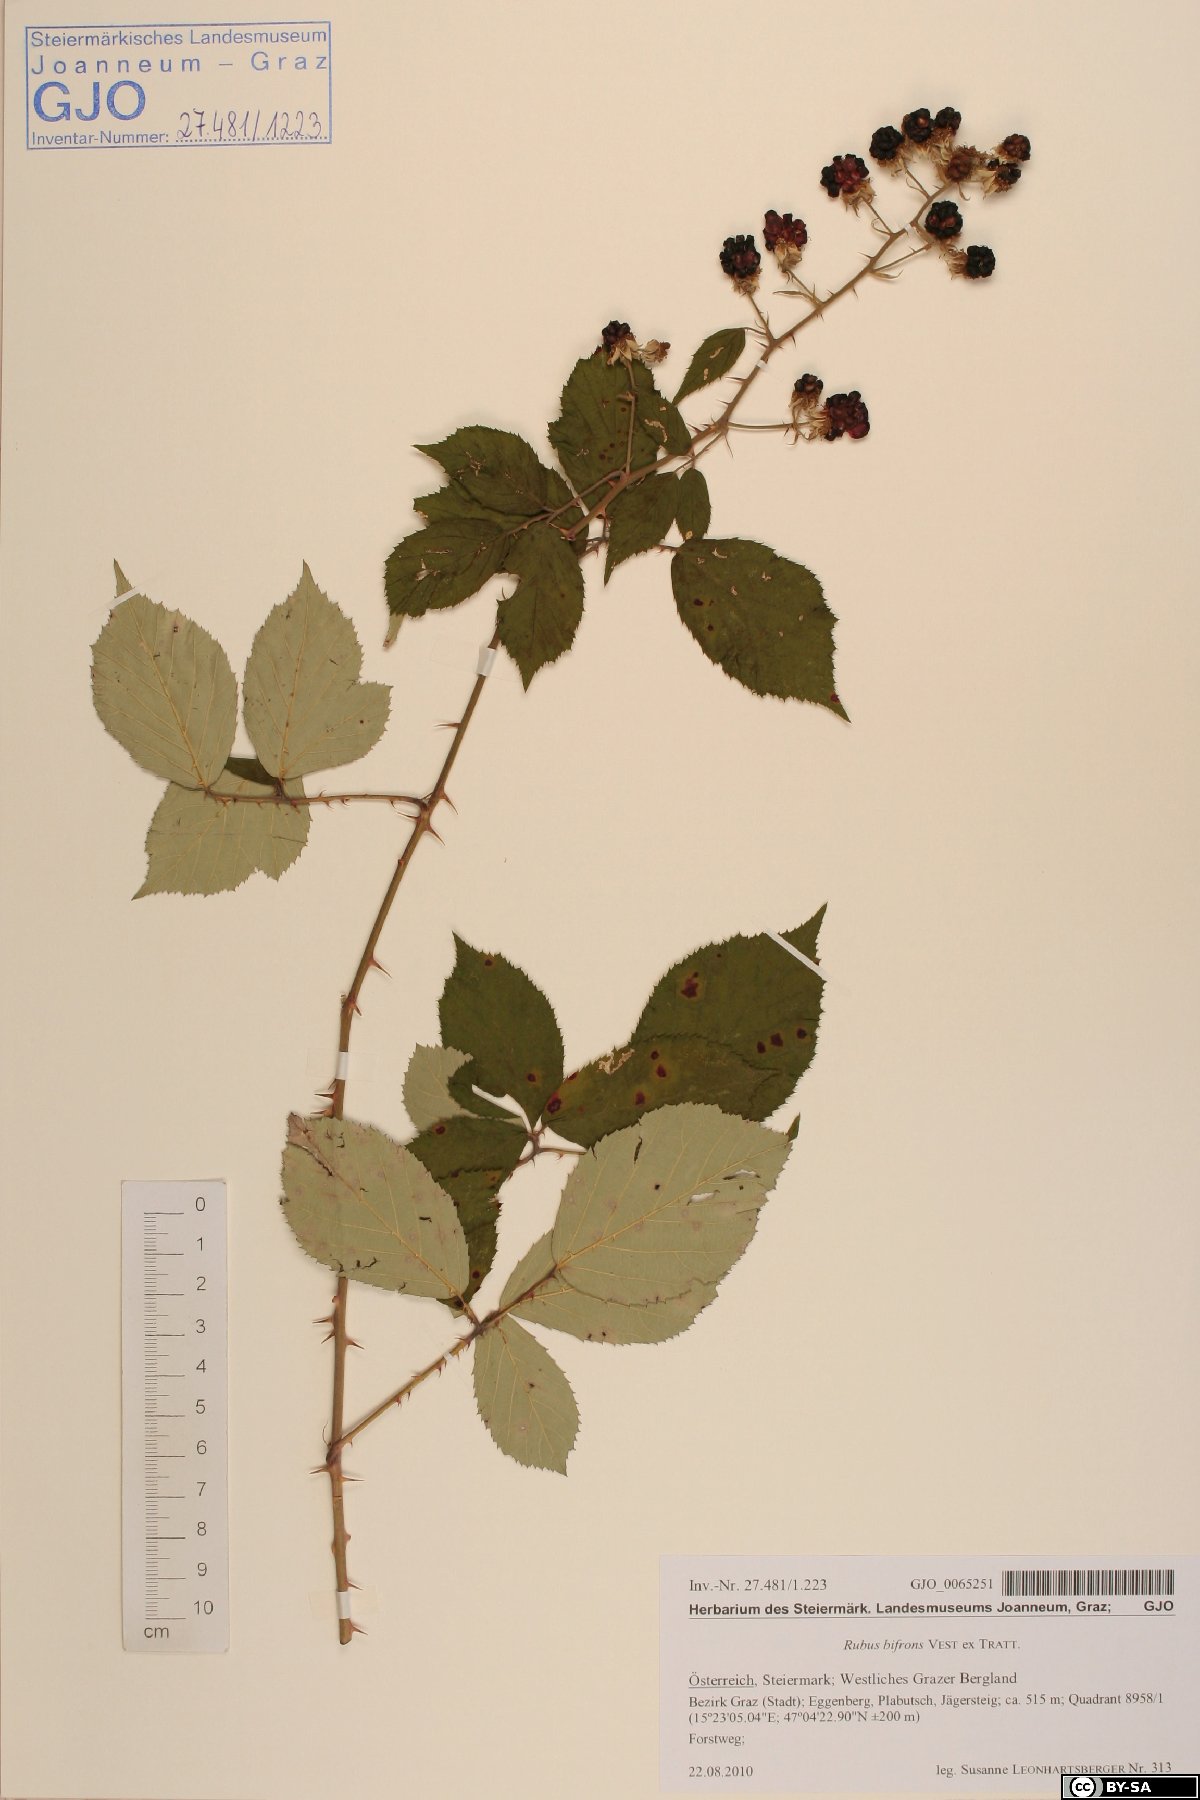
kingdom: Plantae
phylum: Tracheophyta
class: Magnoliopsida
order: Rosales
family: Rosaceae
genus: Rubus
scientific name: Rubus bifrons
